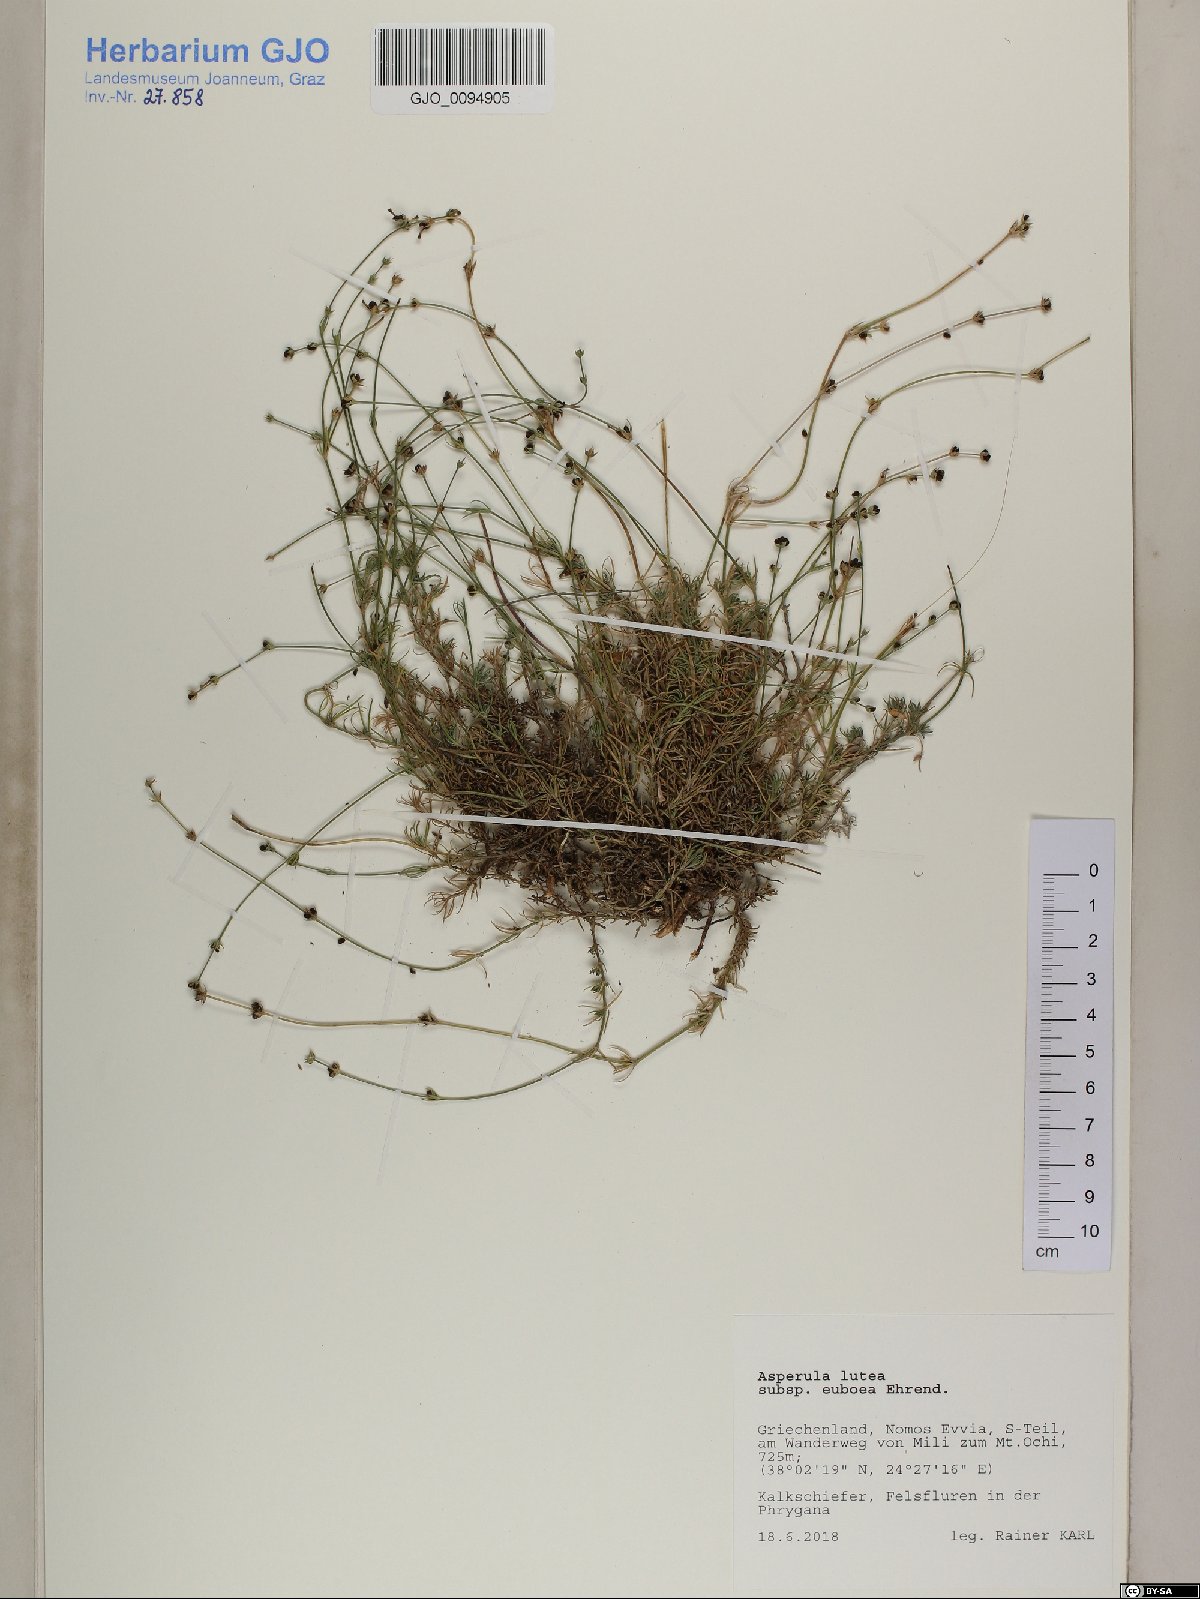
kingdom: Plantae
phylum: Tracheophyta
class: Magnoliopsida
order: Gentianales
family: Rubiaceae
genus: Cynanchica
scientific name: Cynanchica lutea
